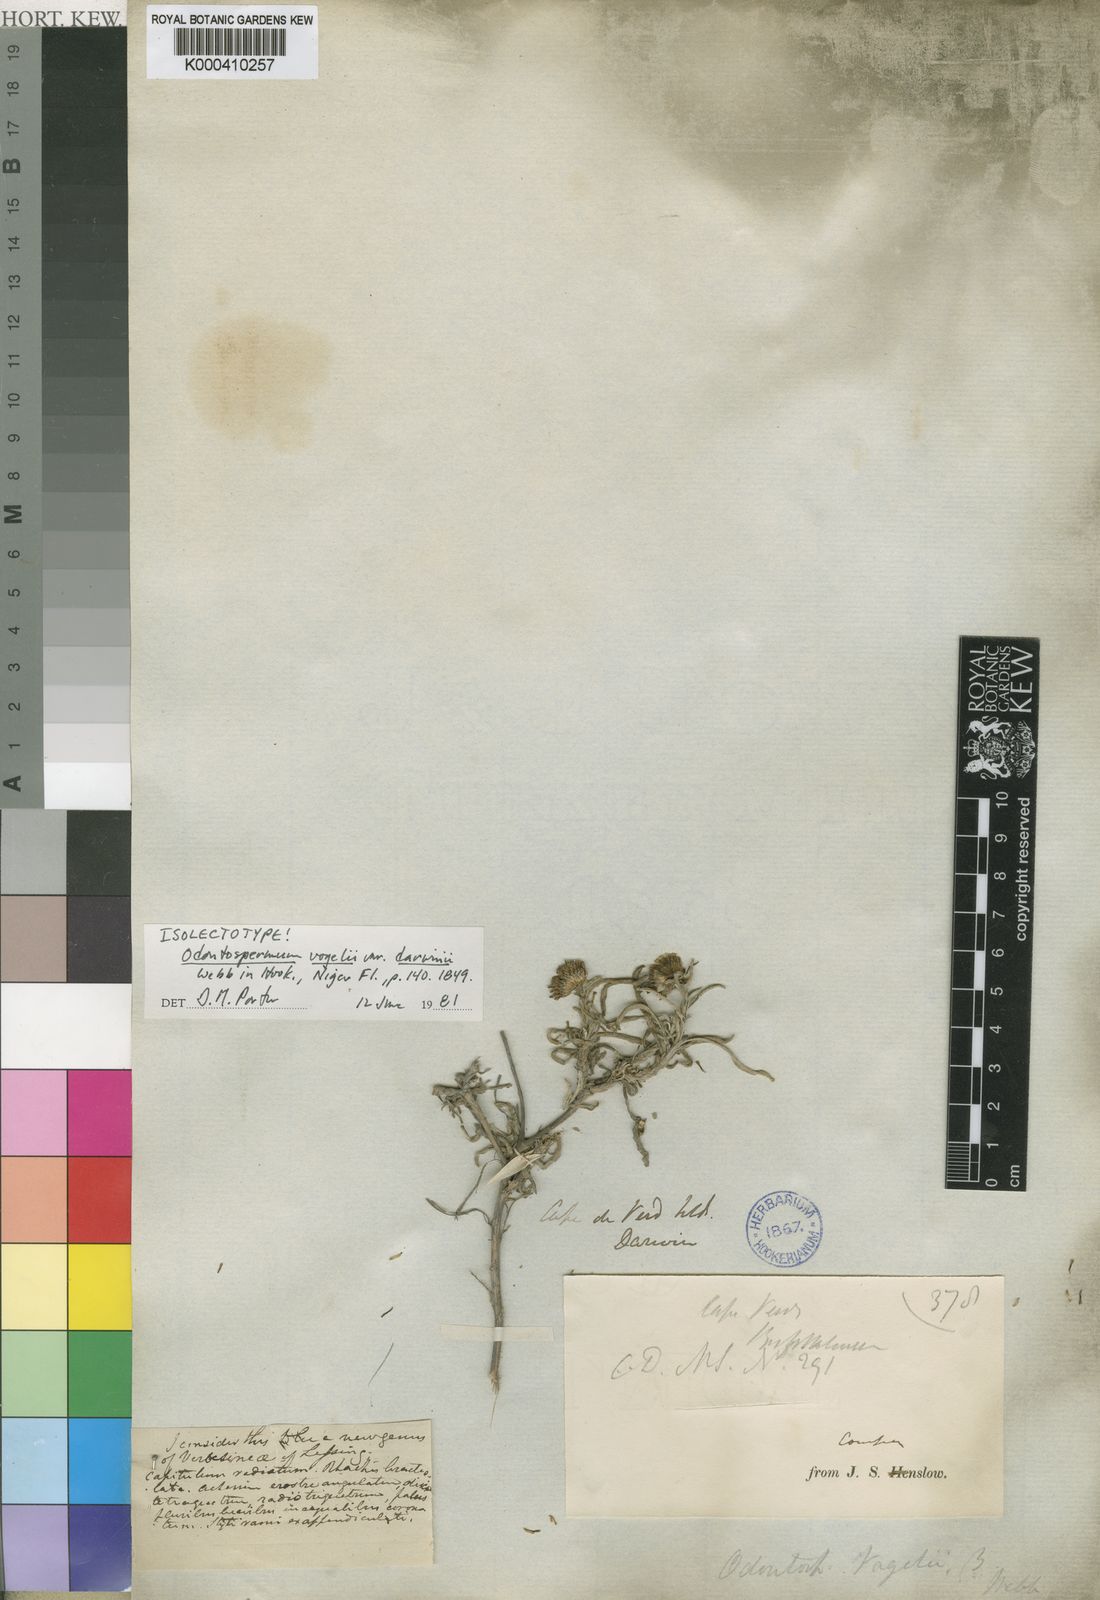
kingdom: Plantae
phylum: Tracheophyta
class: Magnoliopsida
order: Asterales
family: Asteraceae
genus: Asteriscus
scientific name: Asteriscus daltonii
